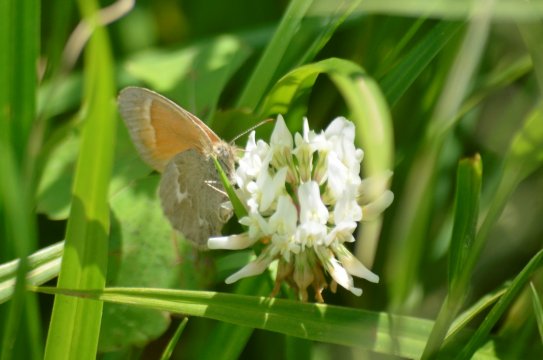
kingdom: Animalia
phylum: Arthropoda
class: Insecta
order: Lepidoptera
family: Nymphalidae
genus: Coenonympha
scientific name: Coenonympha tullia
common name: Large Heath
